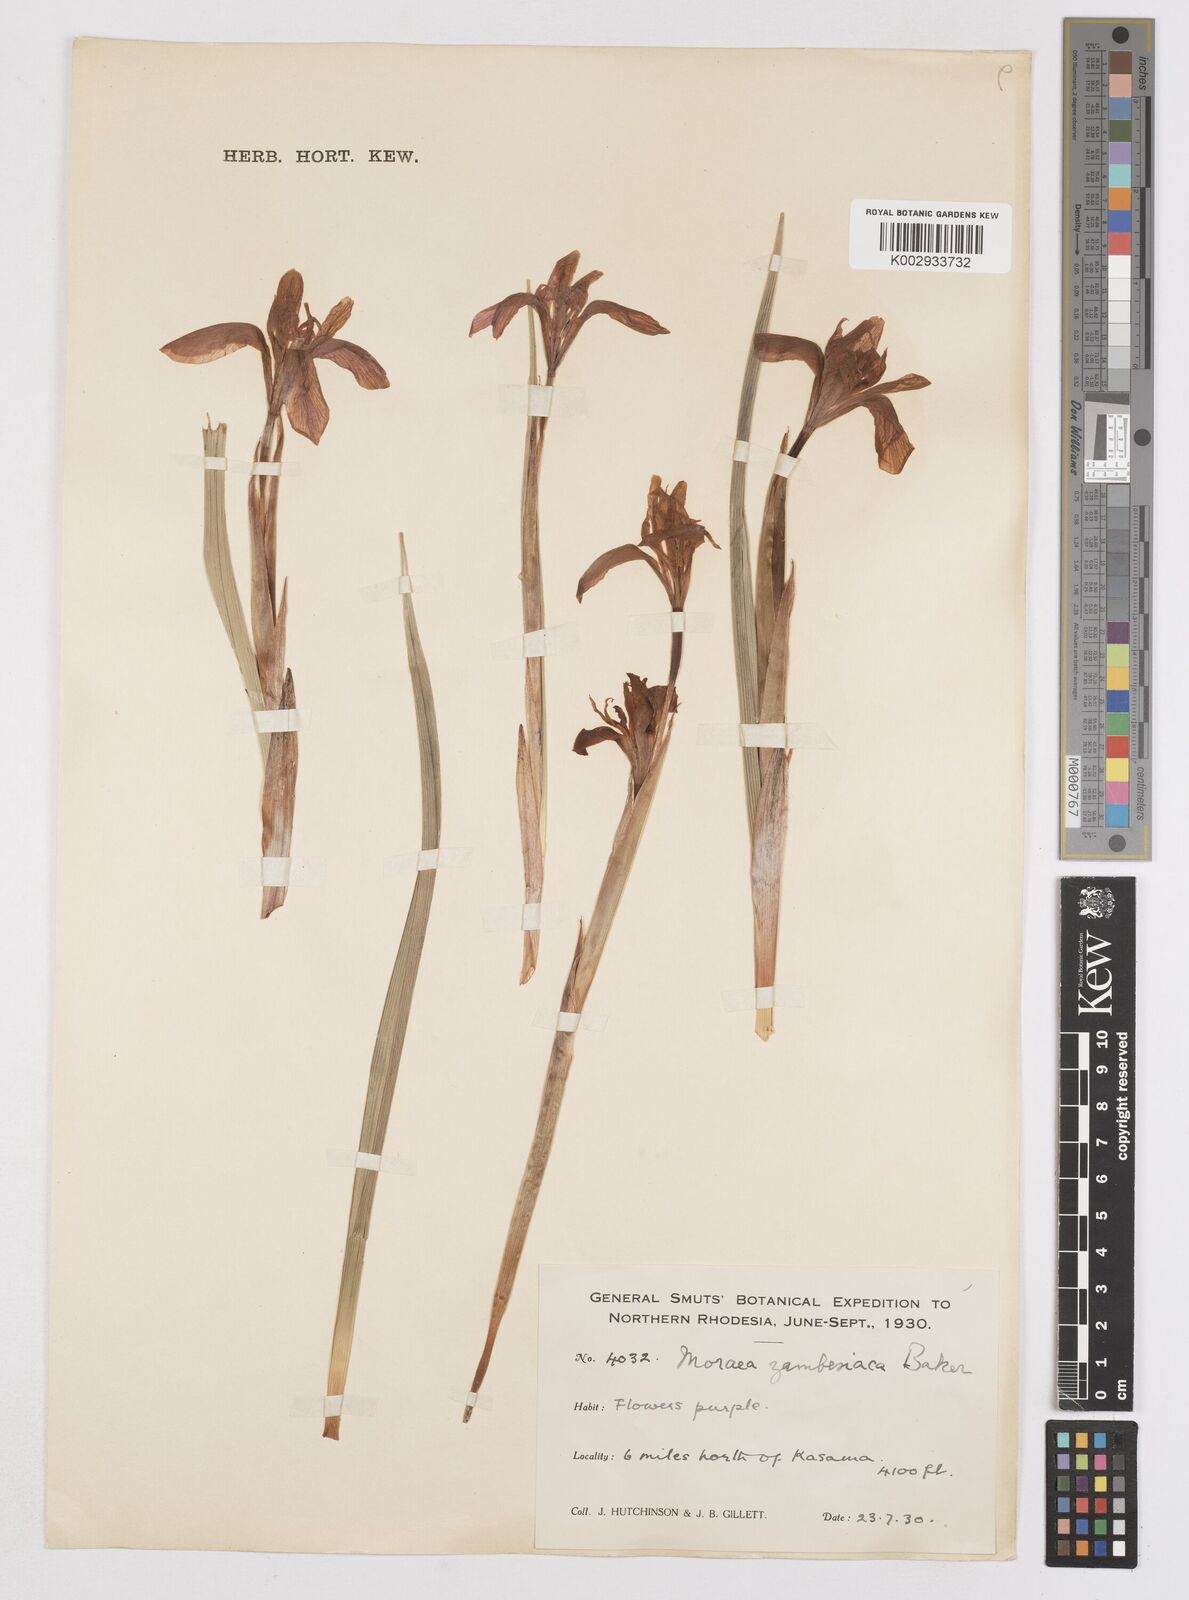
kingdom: Plantae
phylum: Tracheophyta
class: Liliopsida
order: Asparagales
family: Iridaceae
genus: Moraea
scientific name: Moraea schimperi
